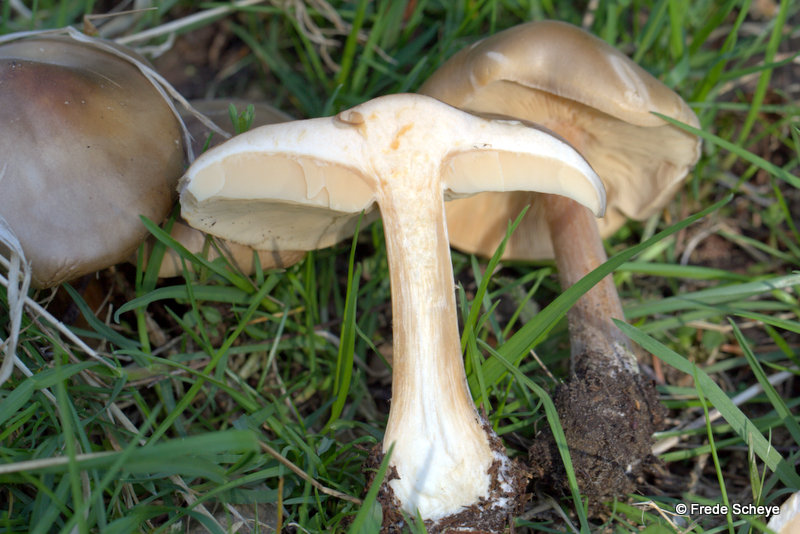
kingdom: Fungi
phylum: Basidiomycota
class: Agaricomycetes
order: Agaricales
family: Tricholomataceae
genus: Melanoleuca
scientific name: Melanoleuca cognata
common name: gyldengrå munkehat
